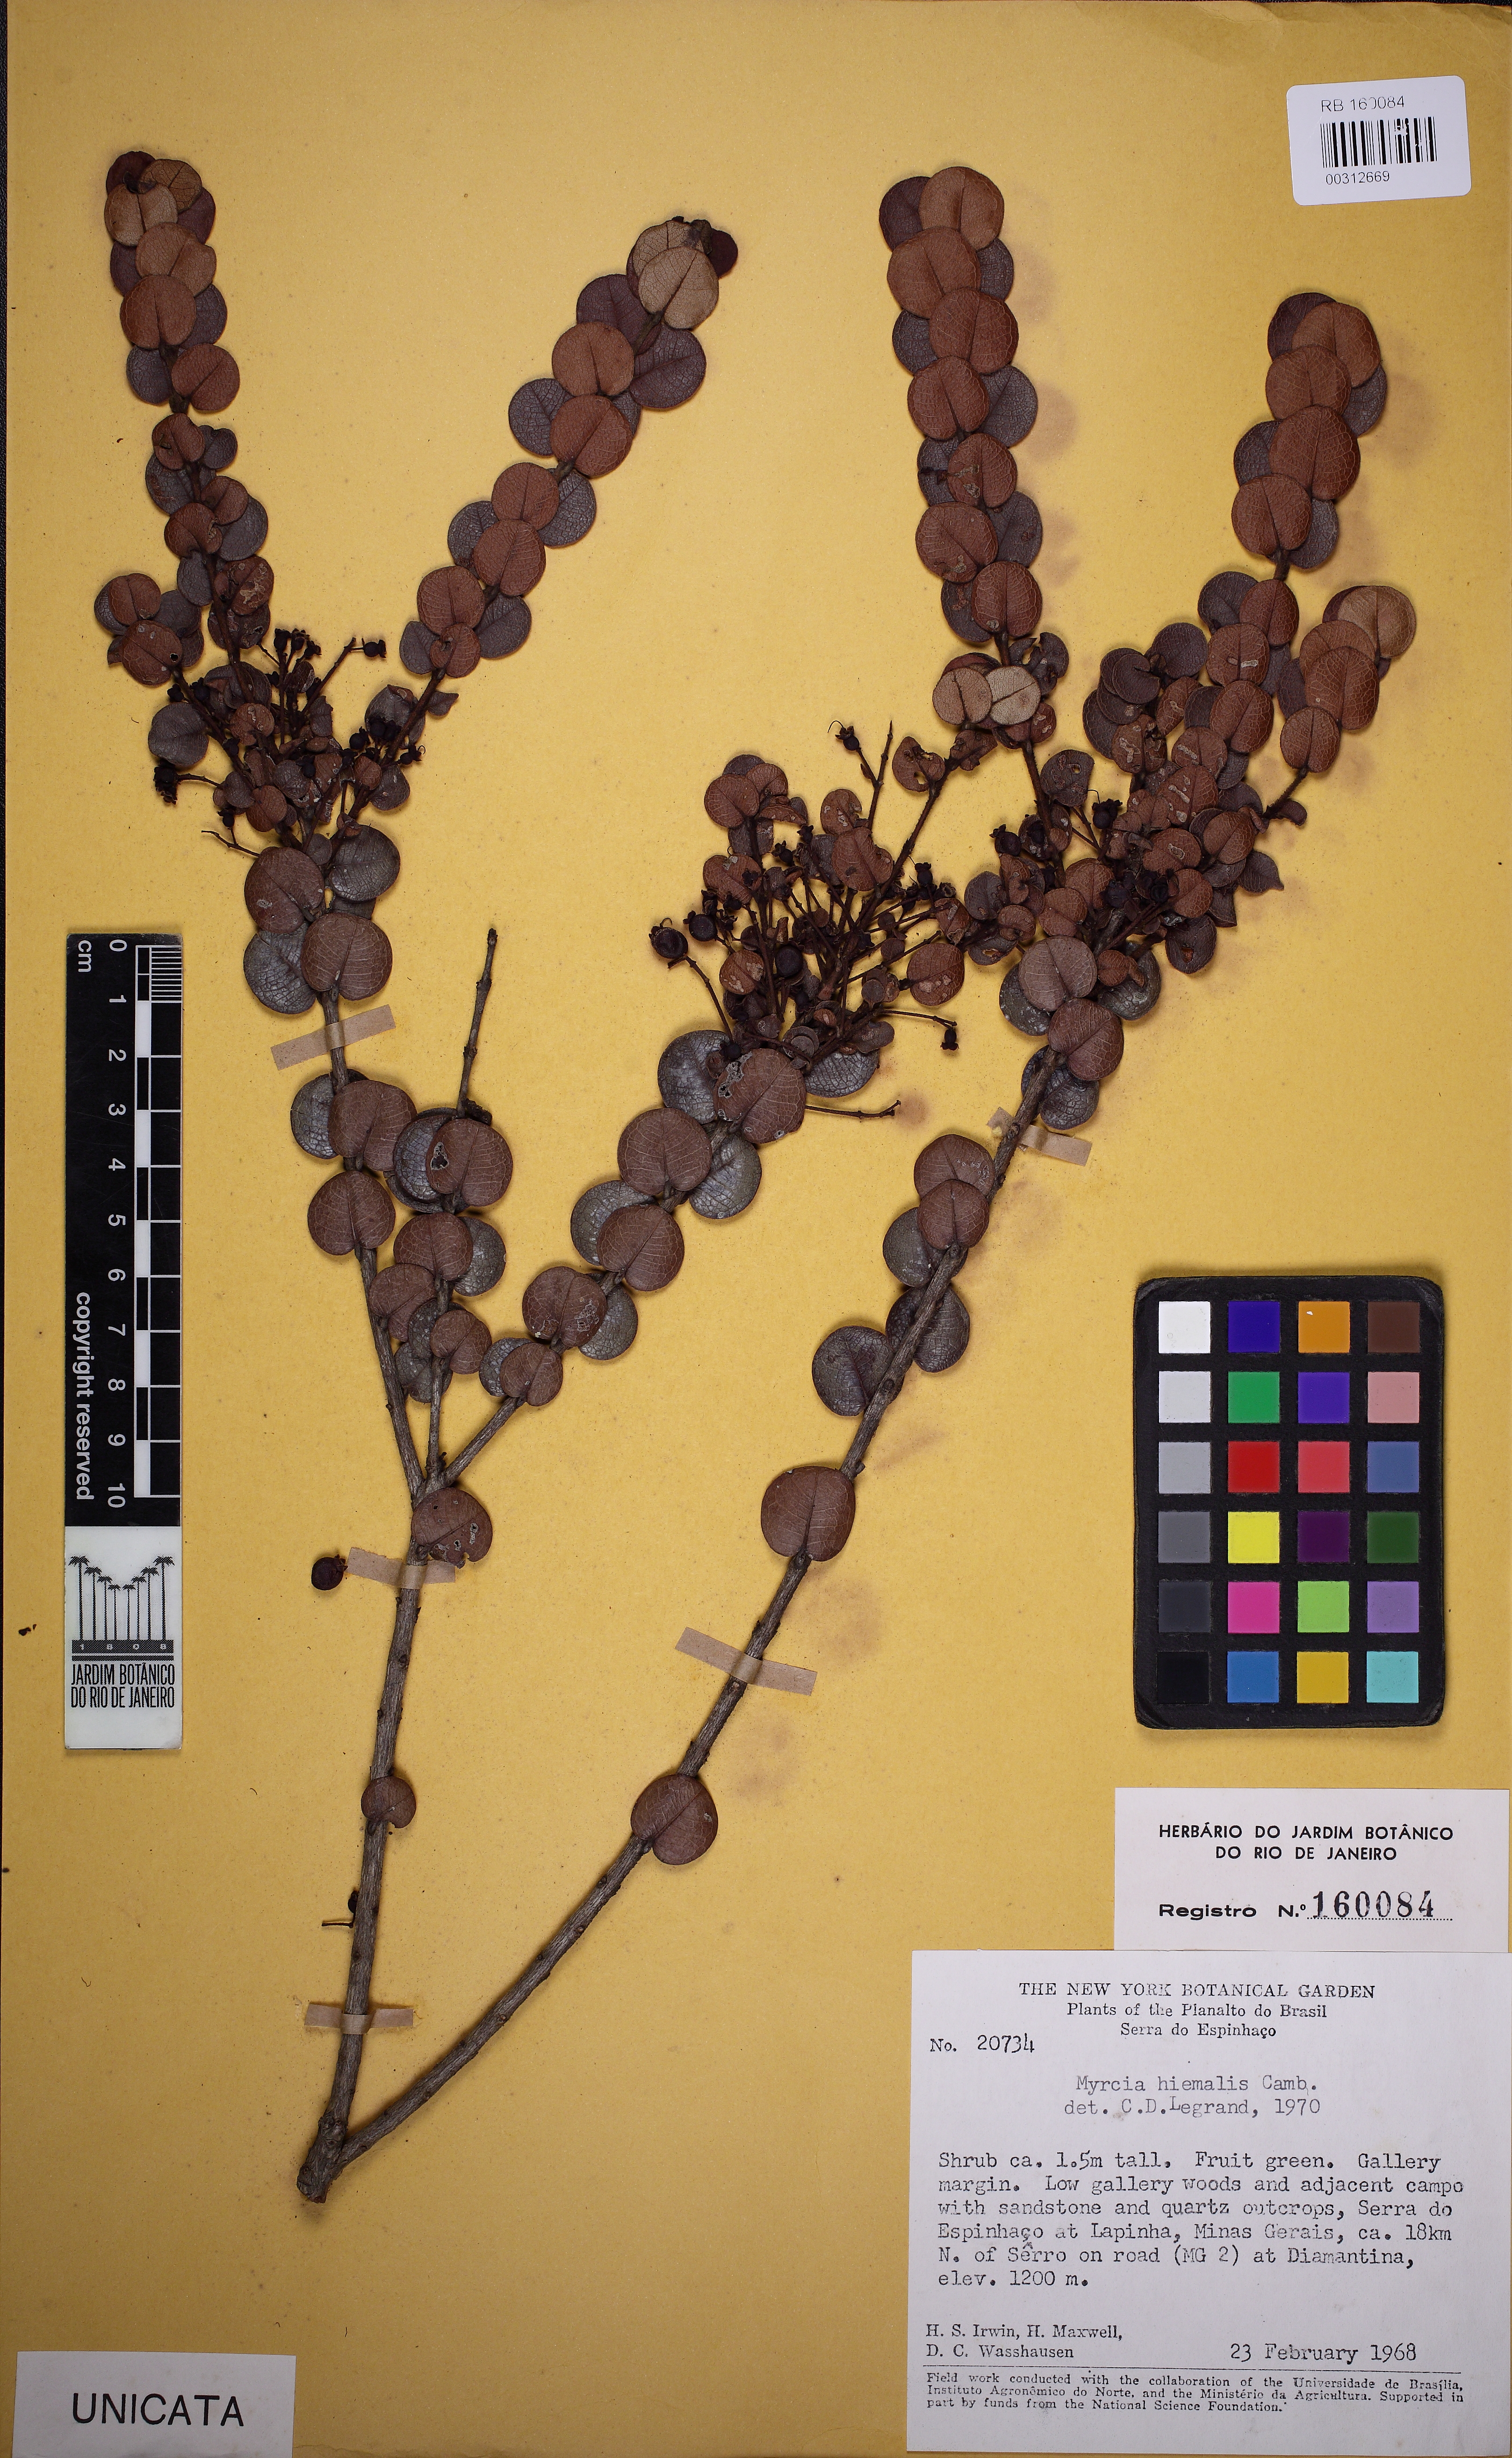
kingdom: Plantae
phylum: Tracheophyta
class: Magnoliopsida
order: Myrtales
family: Myrtaceae
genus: Myrcia
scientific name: Myrcia reticulosa
